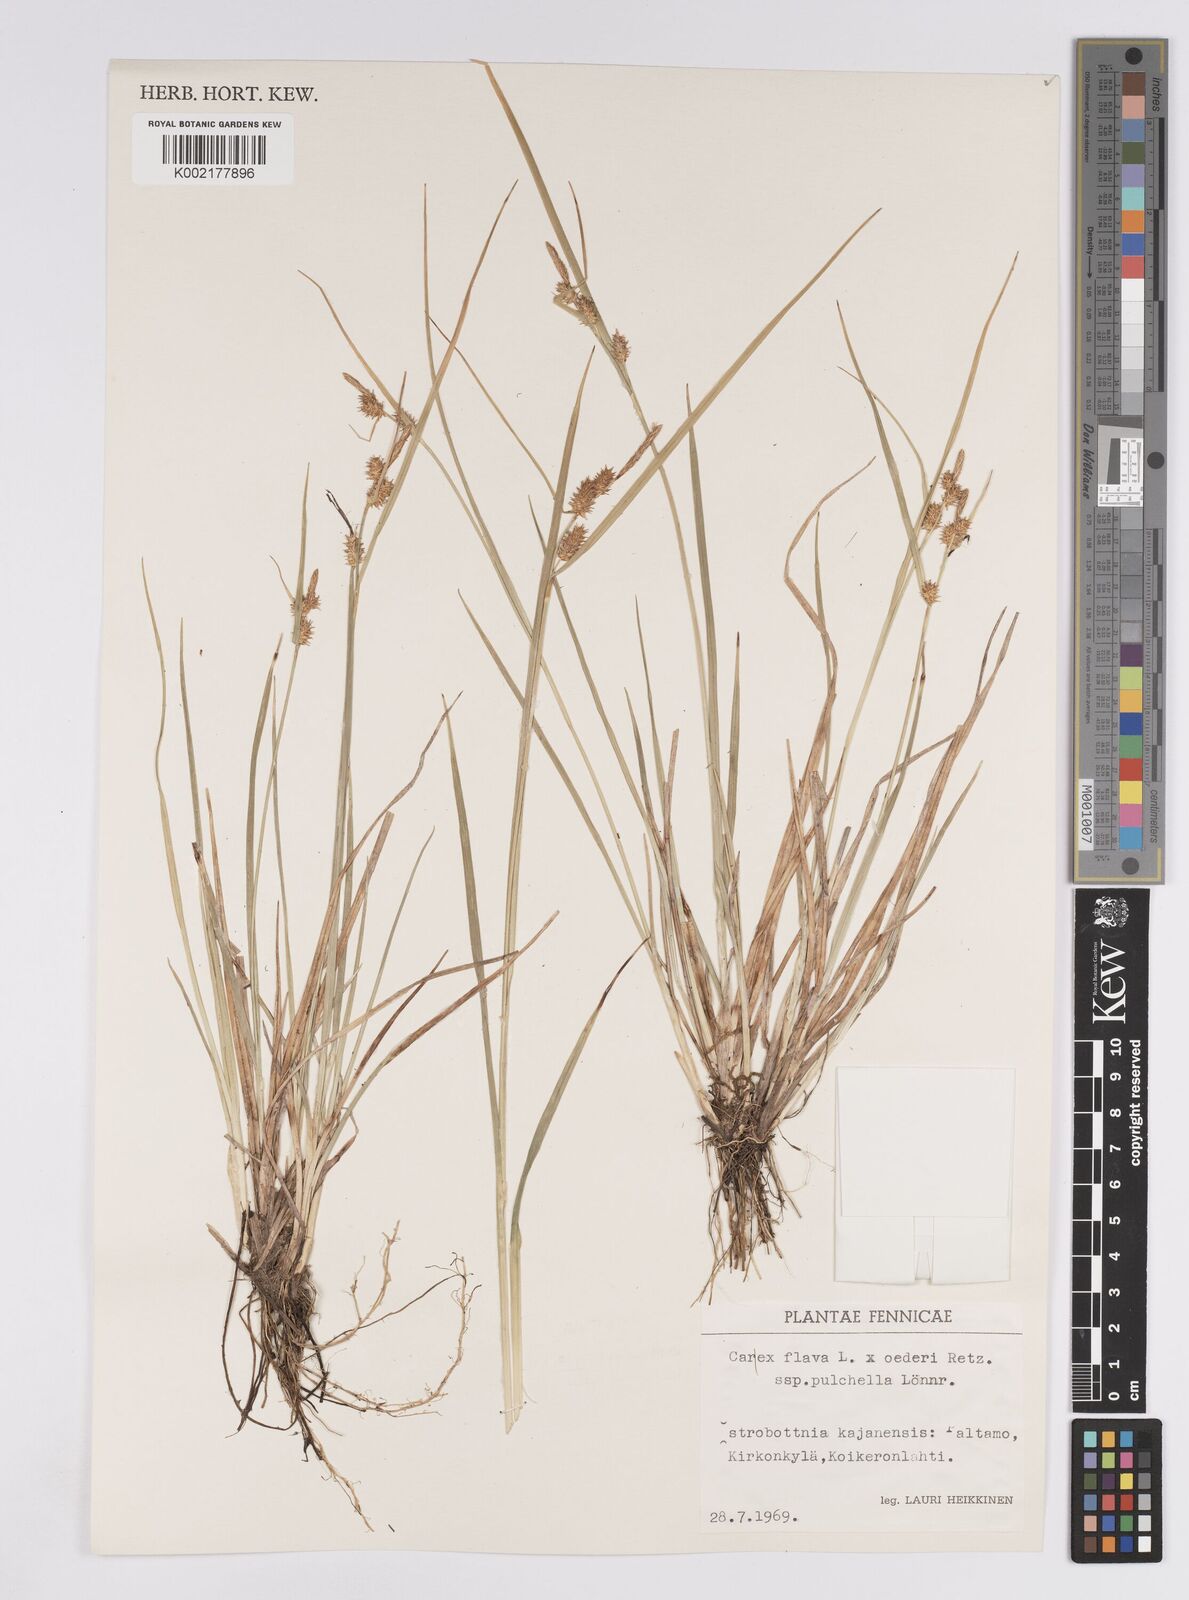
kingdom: Plantae
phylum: Tracheophyta
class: Liliopsida
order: Poales
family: Cyperaceae
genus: Carex
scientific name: Carex flava
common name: Large yellow-sedge
